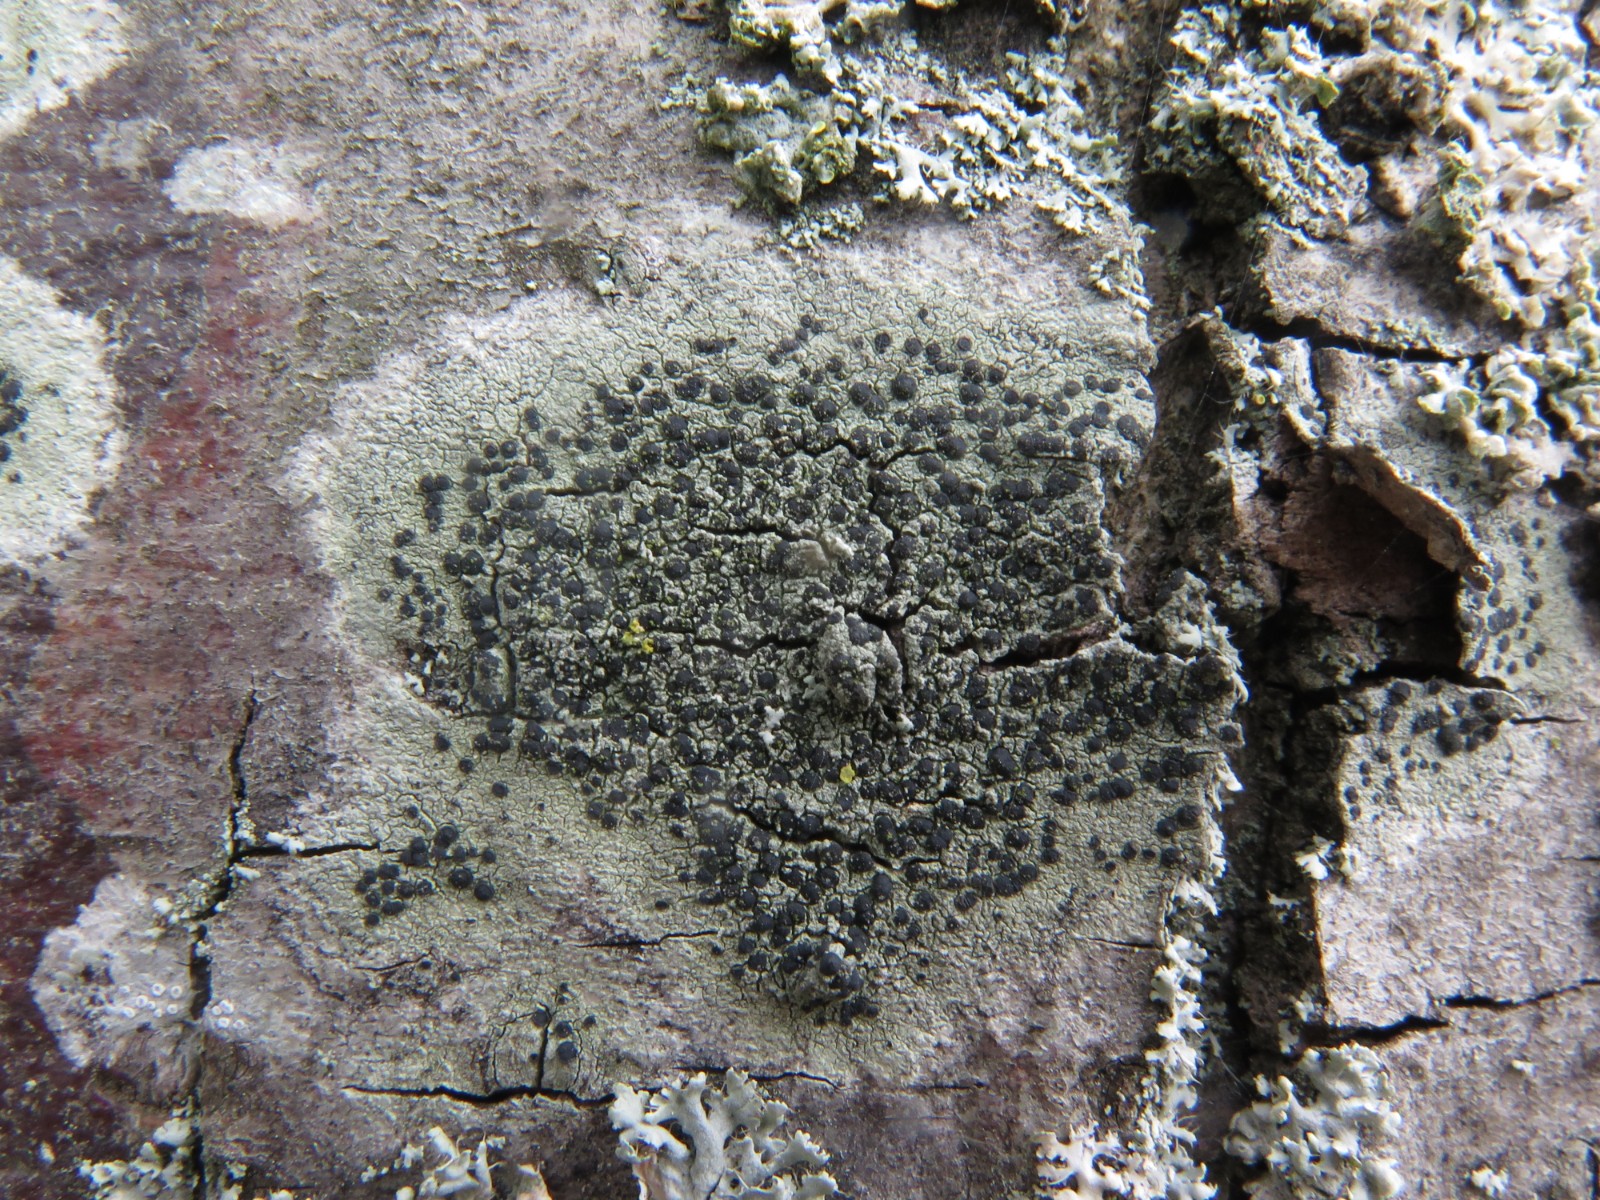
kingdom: Fungi
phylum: Ascomycota
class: Lecanoromycetes
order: Lecanorales
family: Lecanoraceae
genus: Lecidella
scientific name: Lecidella elaeochroma
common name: grågrøn skivelav
